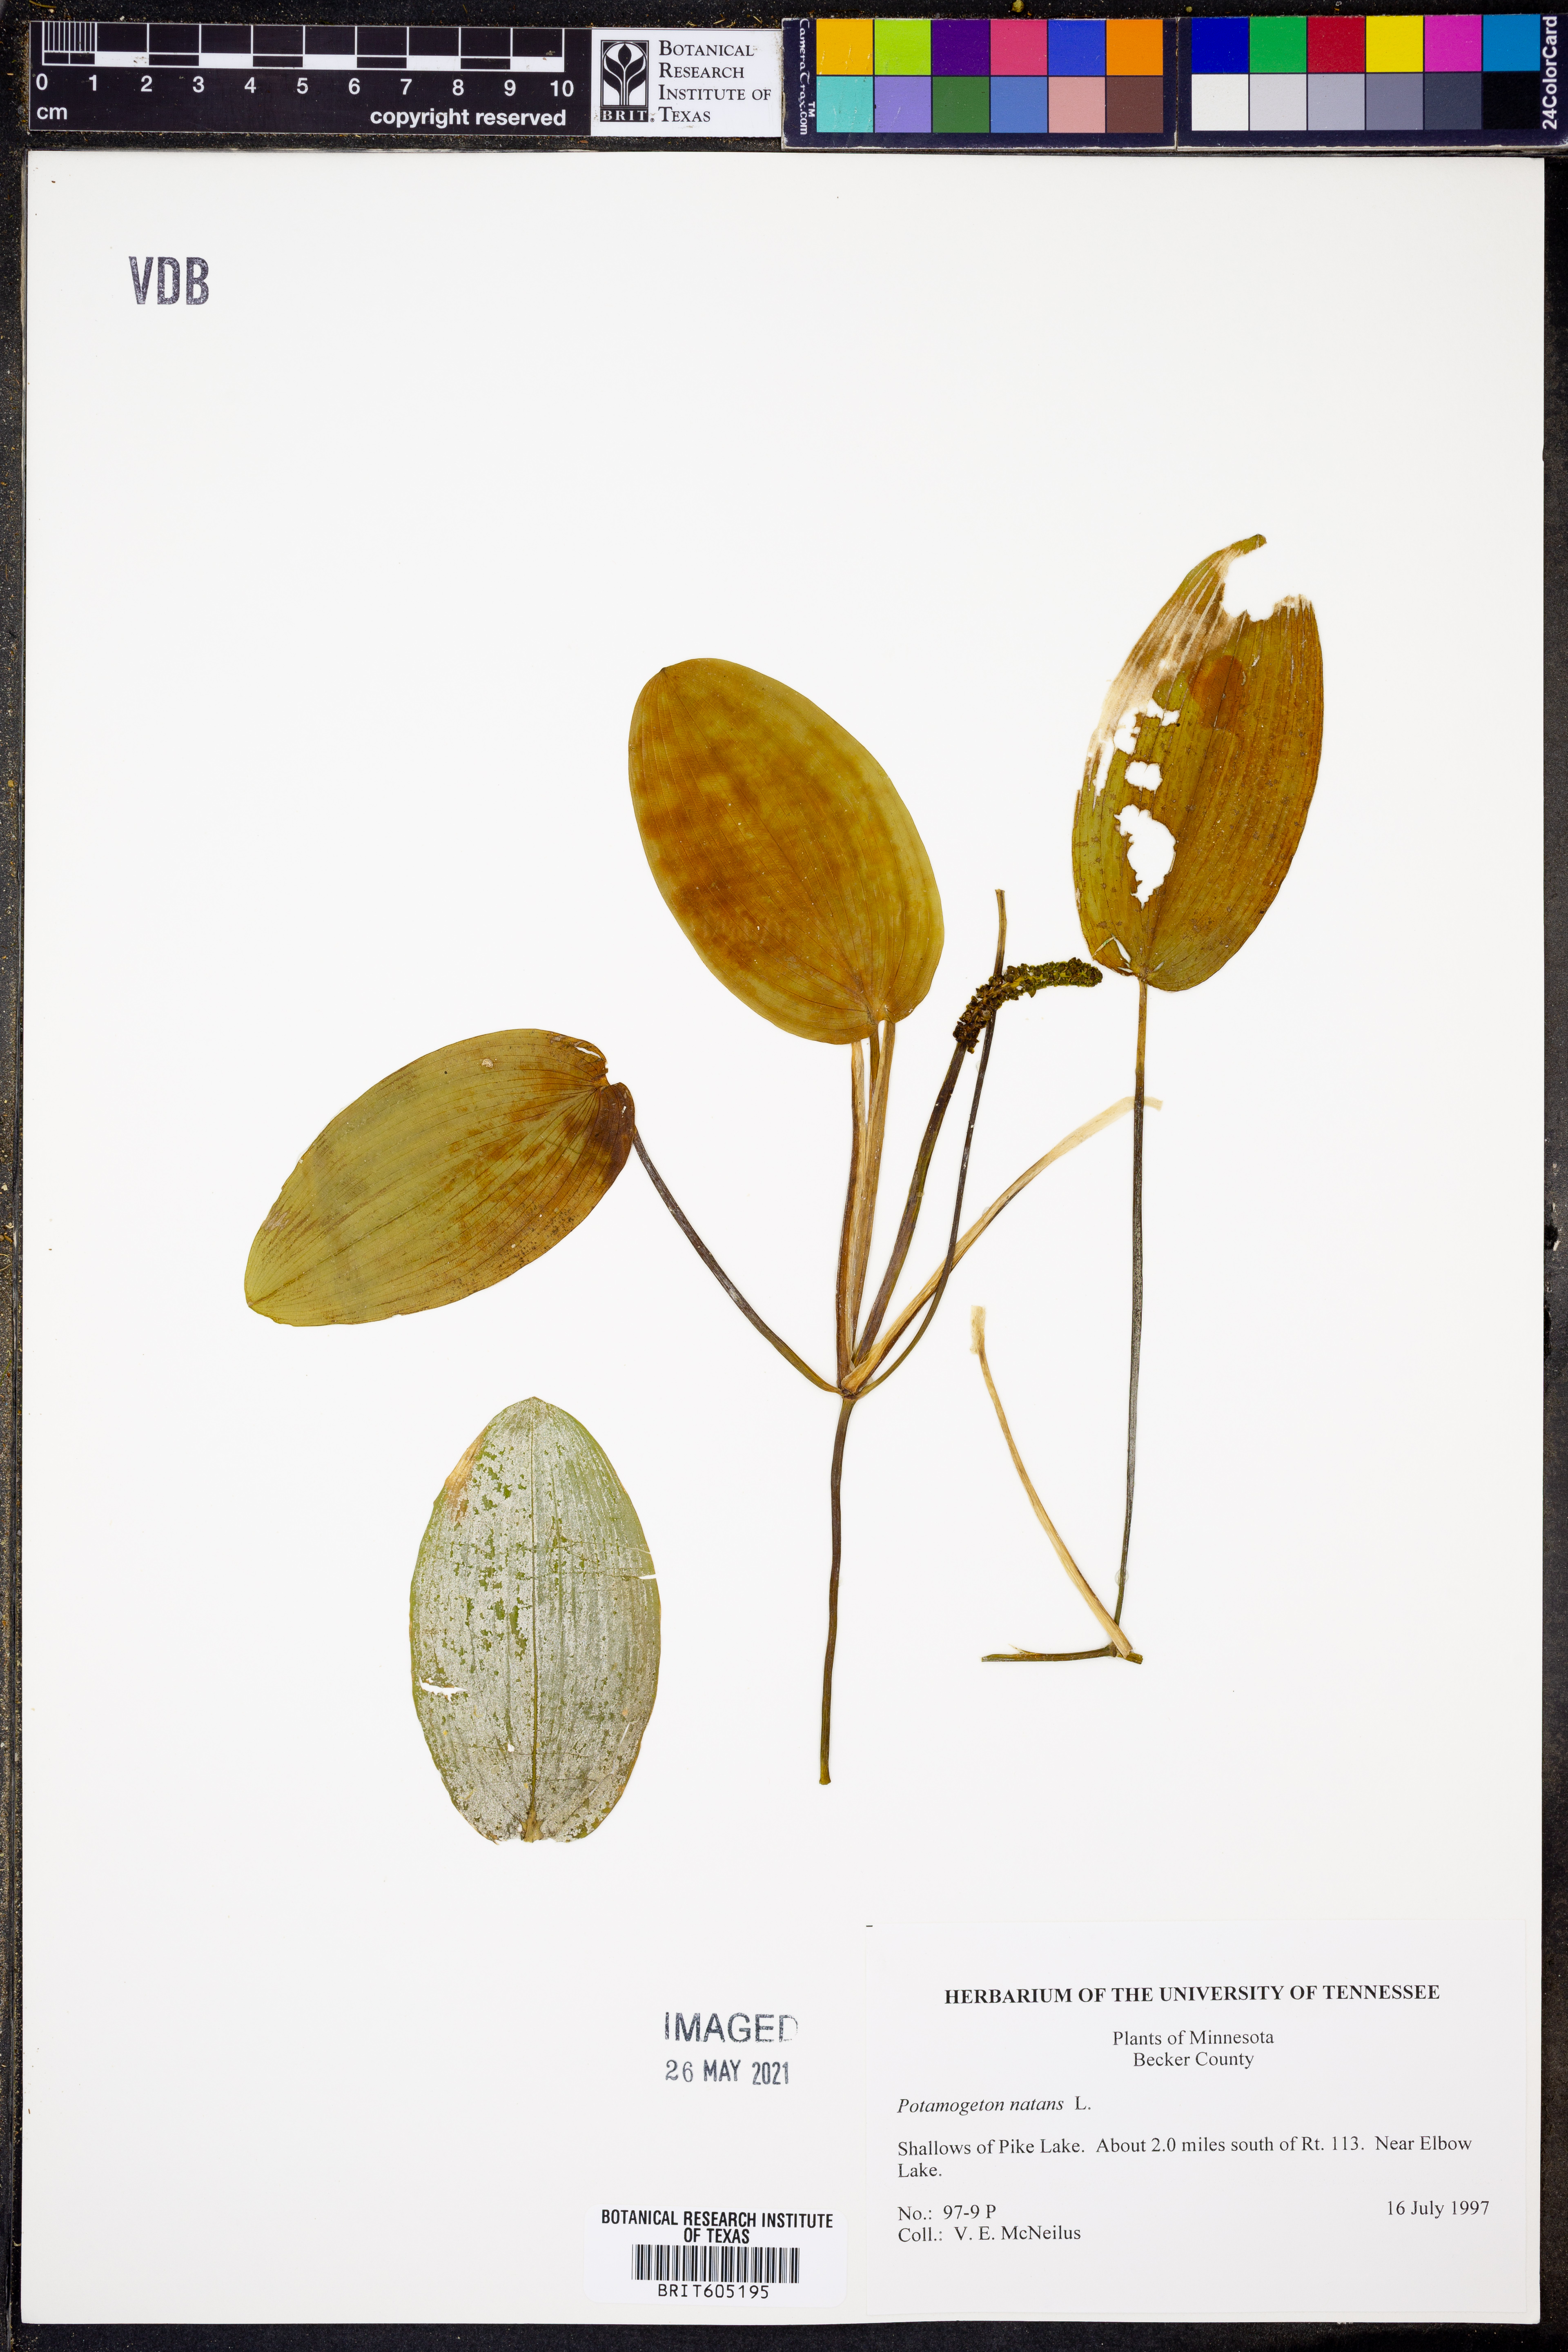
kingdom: Plantae
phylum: Tracheophyta
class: Liliopsida
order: Alismatales
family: Potamogetonaceae
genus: Potamogeton
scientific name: Potamogeton natans
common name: Broad-leaved pondweed
